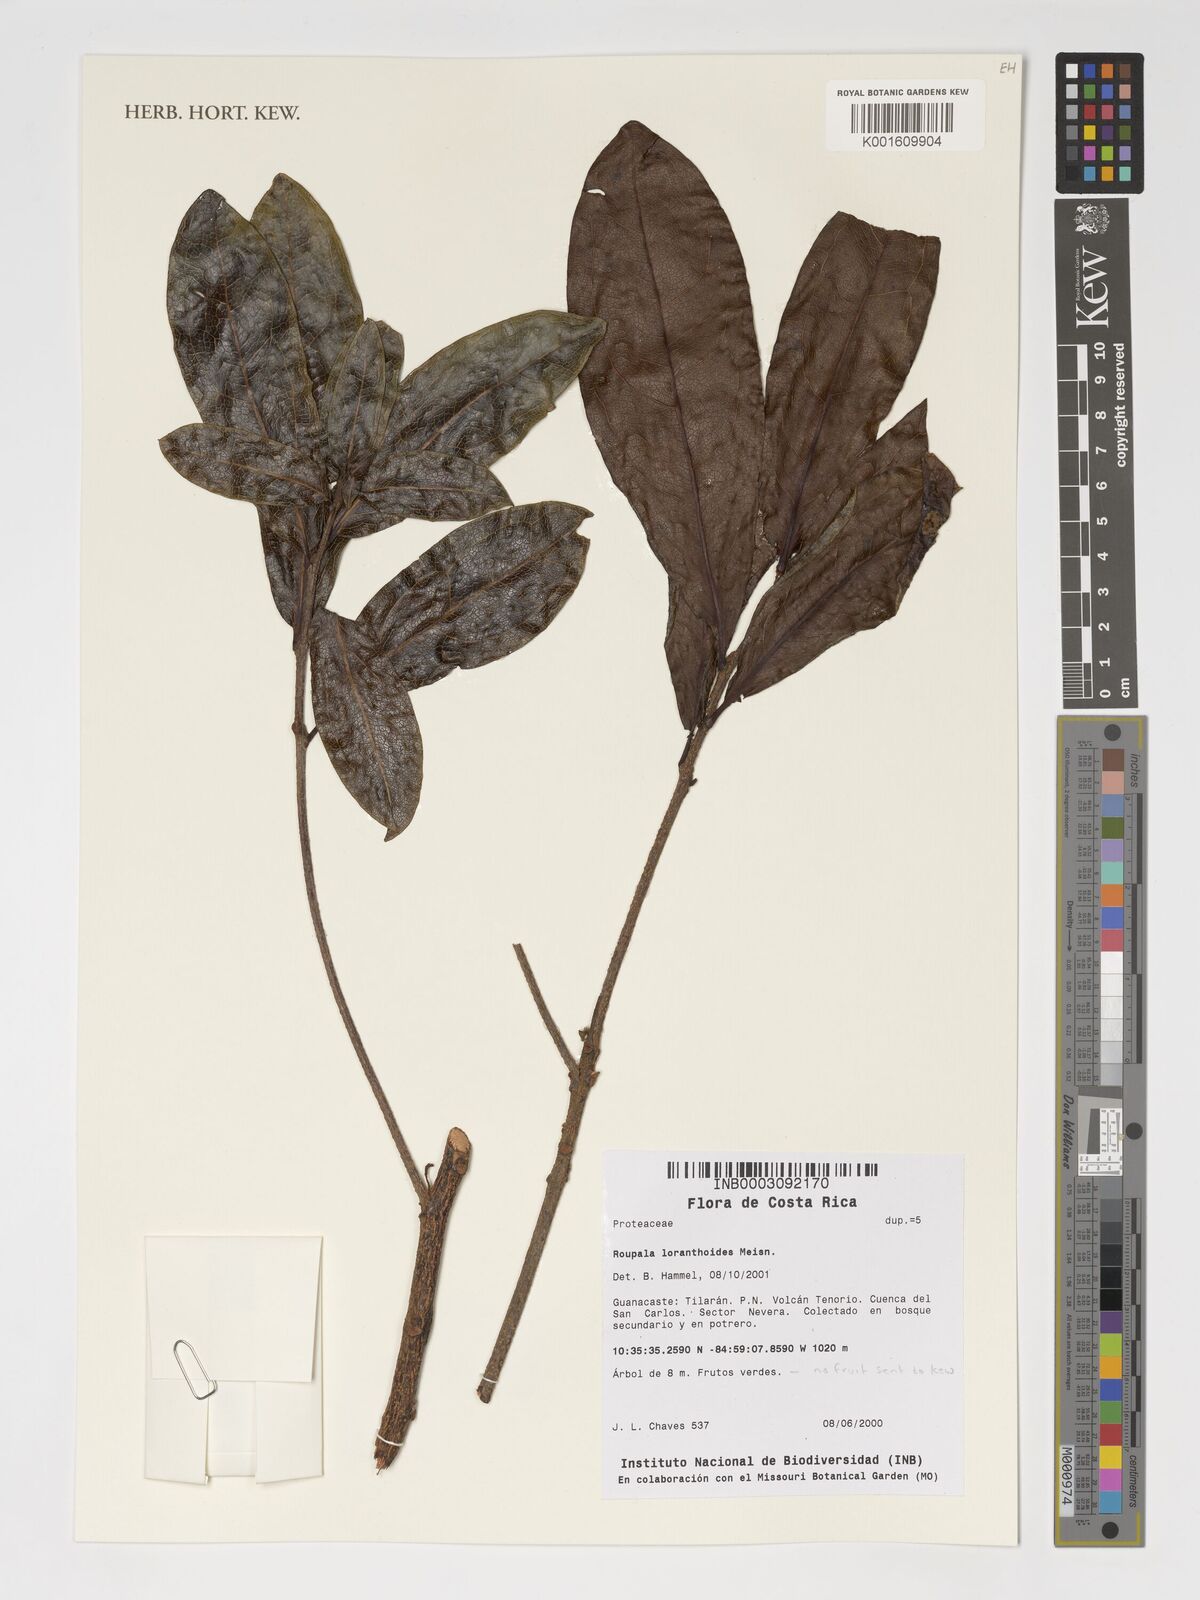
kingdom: Plantae
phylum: Tracheophyta
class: Magnoliopsida
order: Proteales
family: Proteaceae
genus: Roupala
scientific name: Roupala glaberrima
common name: Skunk tree
